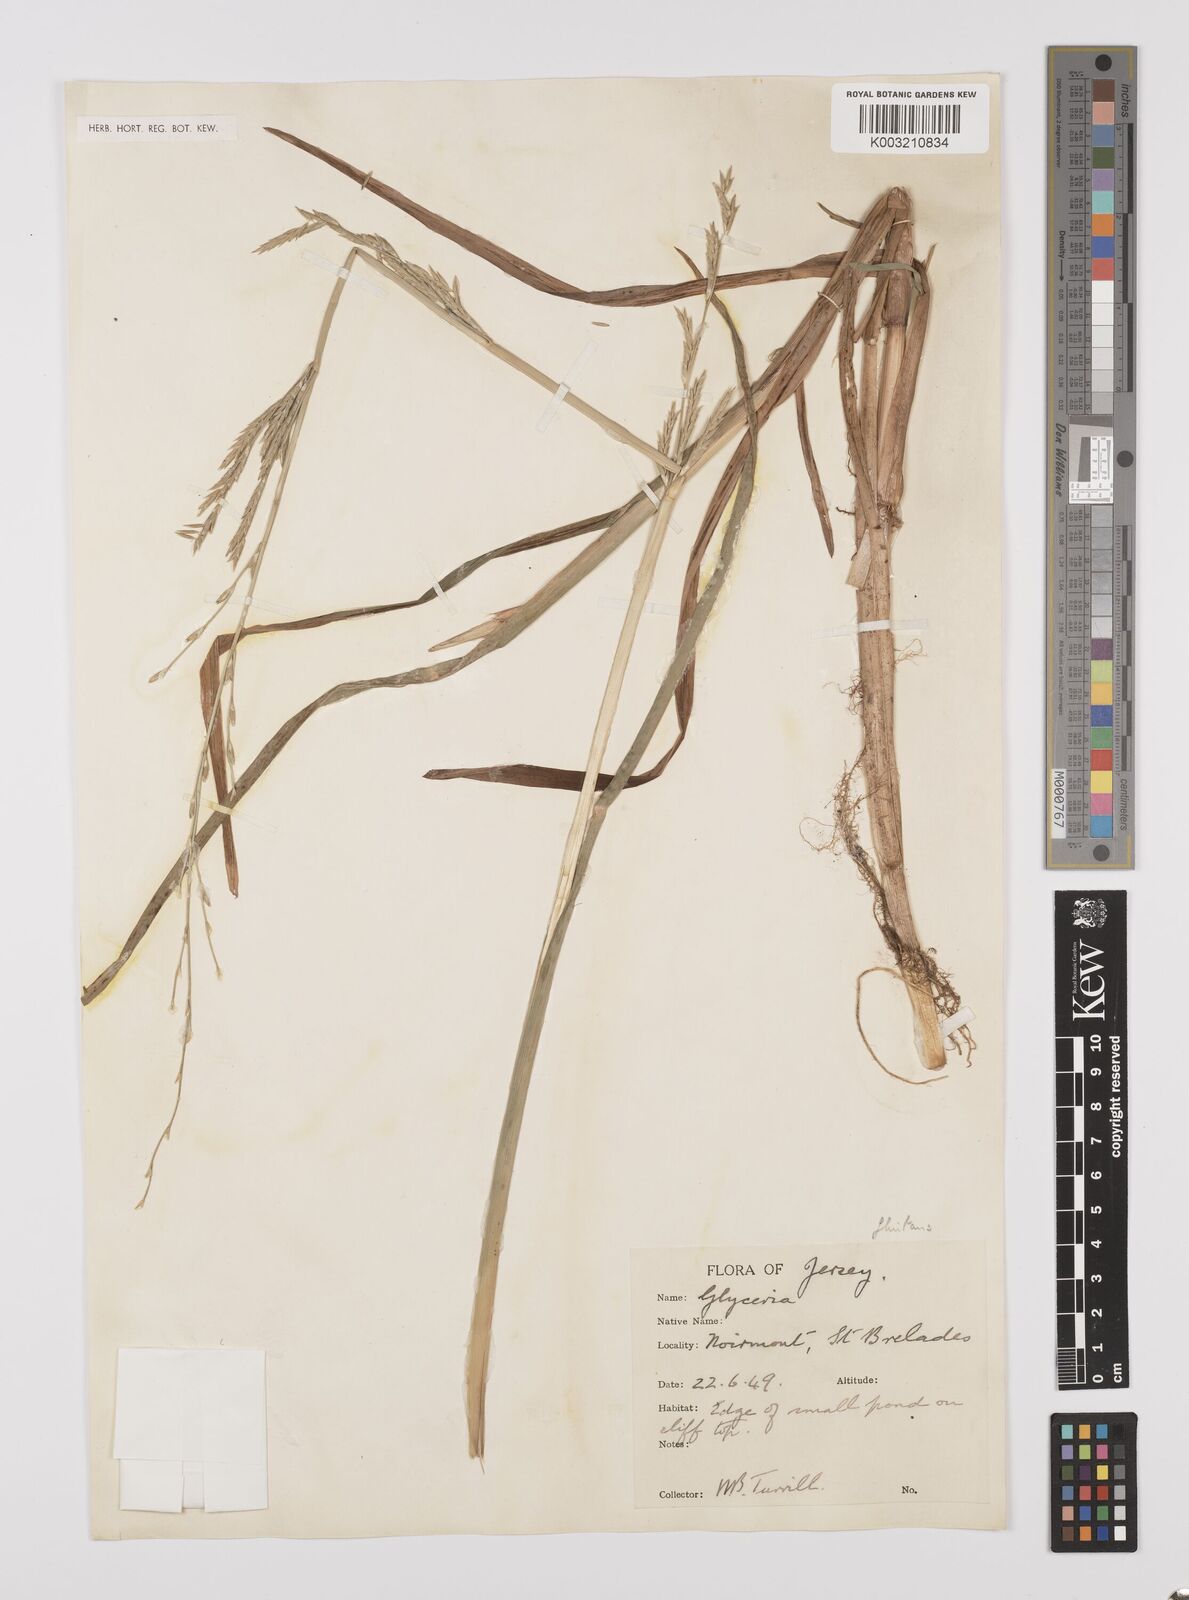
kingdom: Plantae
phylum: Tracheophyta
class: Liliopsida
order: Poales
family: Poaceae
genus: Glyceria
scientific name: Glyceria fluitans
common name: Floating sweet-grass
